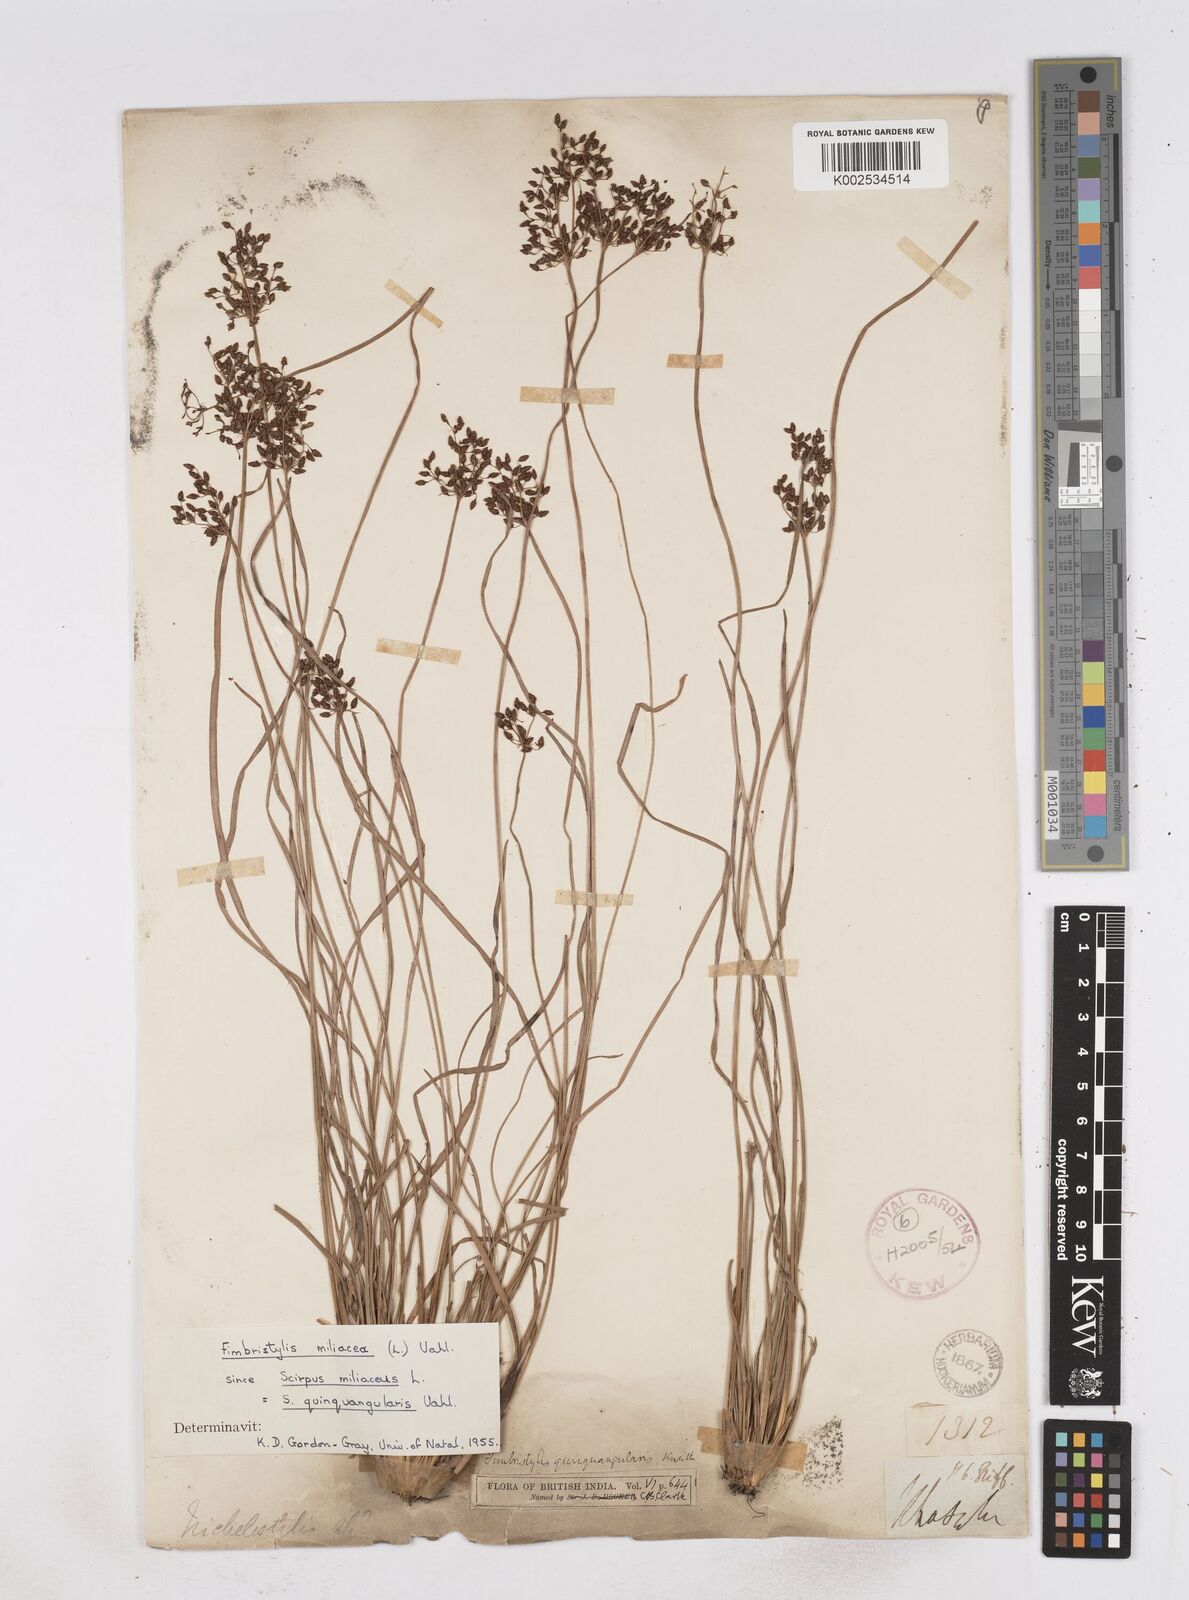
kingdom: Plantae
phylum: Tracheophyta
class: Liliopsida
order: Poales
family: Cyperaceae
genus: Fimbristylis
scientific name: Fimbristylis quinquangularis
